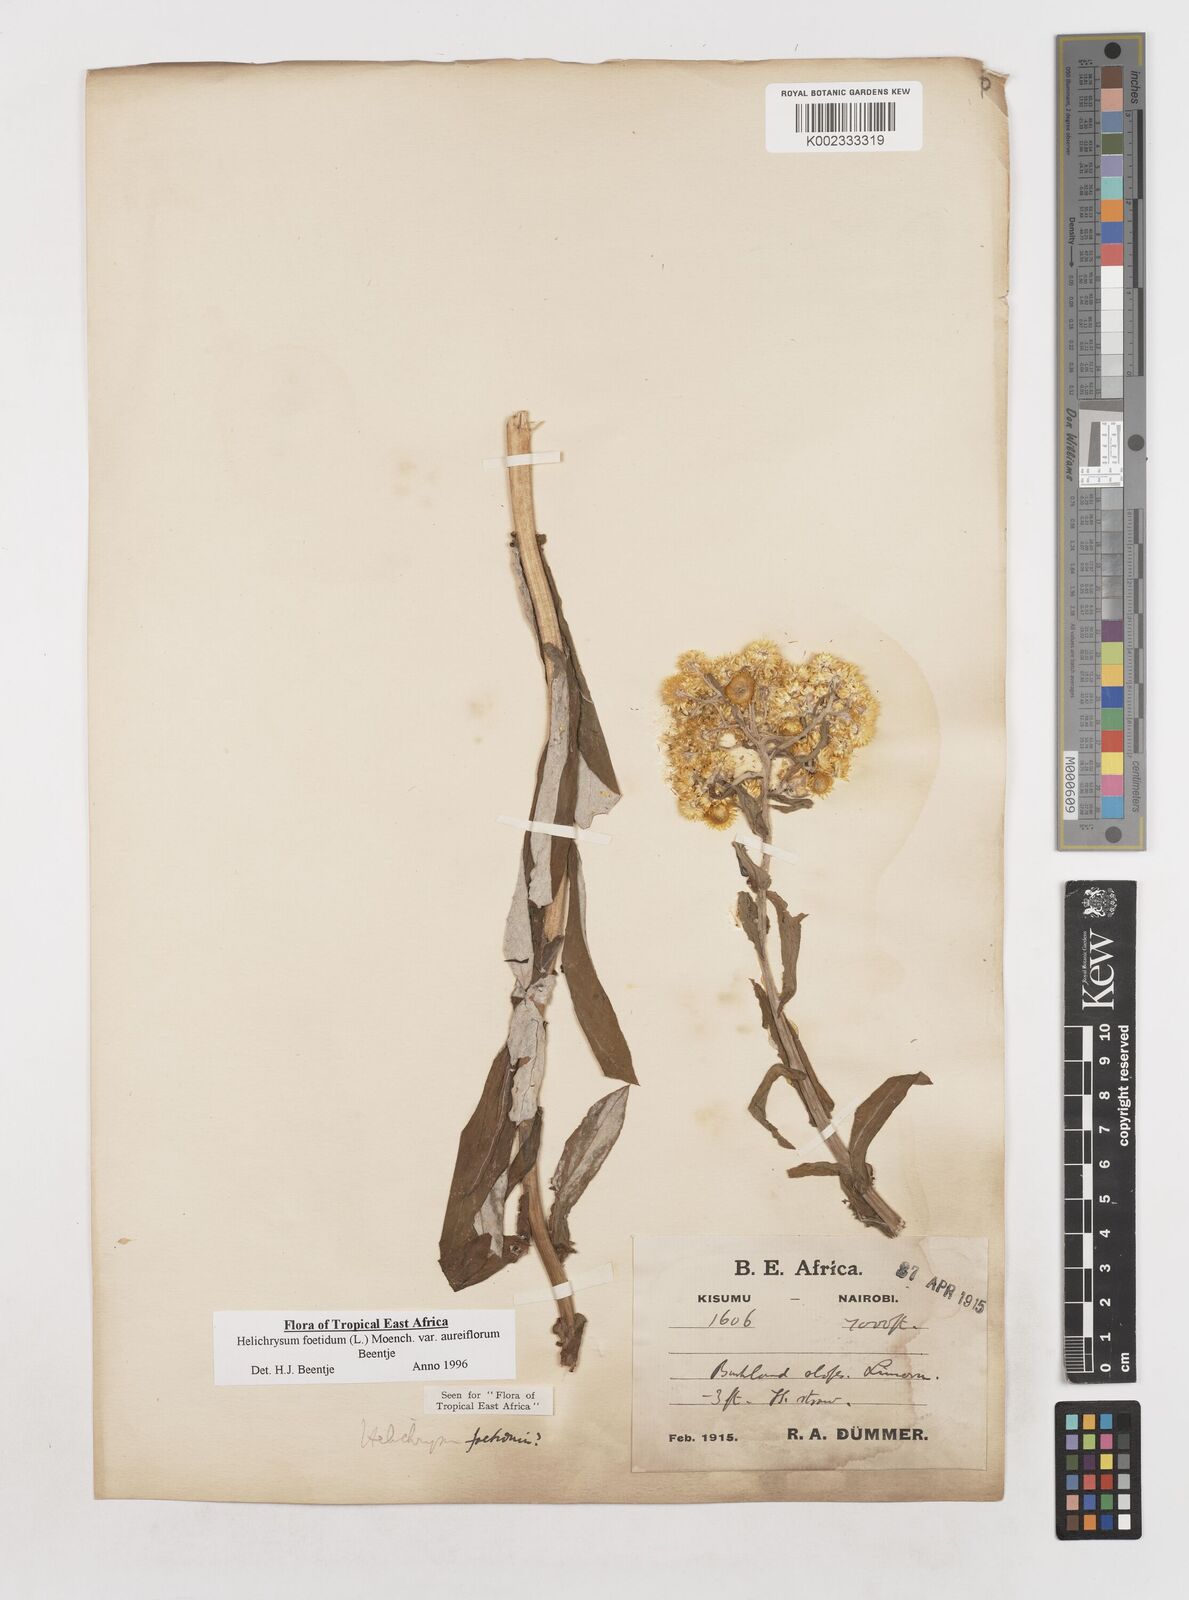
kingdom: Plantae
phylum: Tracheophyta
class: Magnoliopsida
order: Asterales
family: Asteraceae
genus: Helichrysum
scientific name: Helichrysum foetidum
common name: Stinking everlasting
